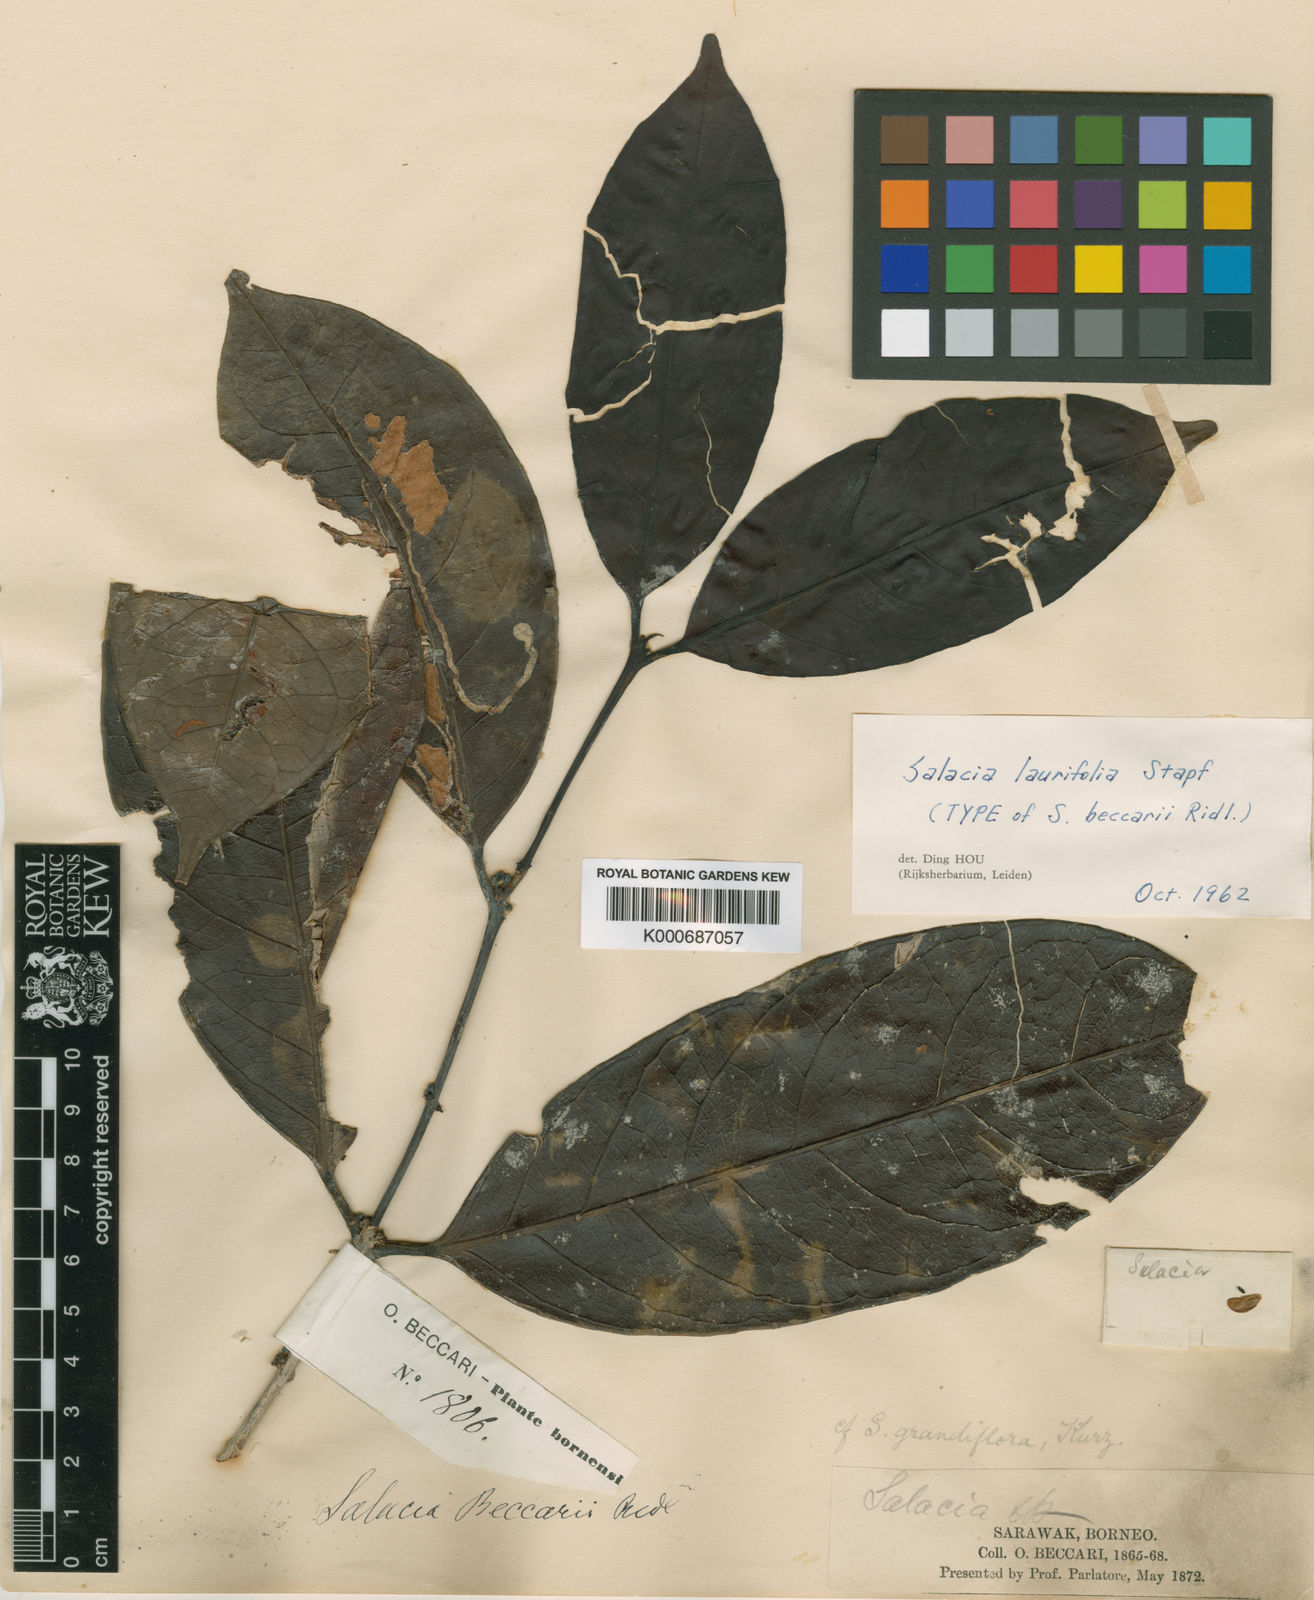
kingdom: Plantae
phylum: Tracheophyta
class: Magnoliopsida
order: Celastrales
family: Celastraceae
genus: Salacia
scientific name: Salacia laurifolia
